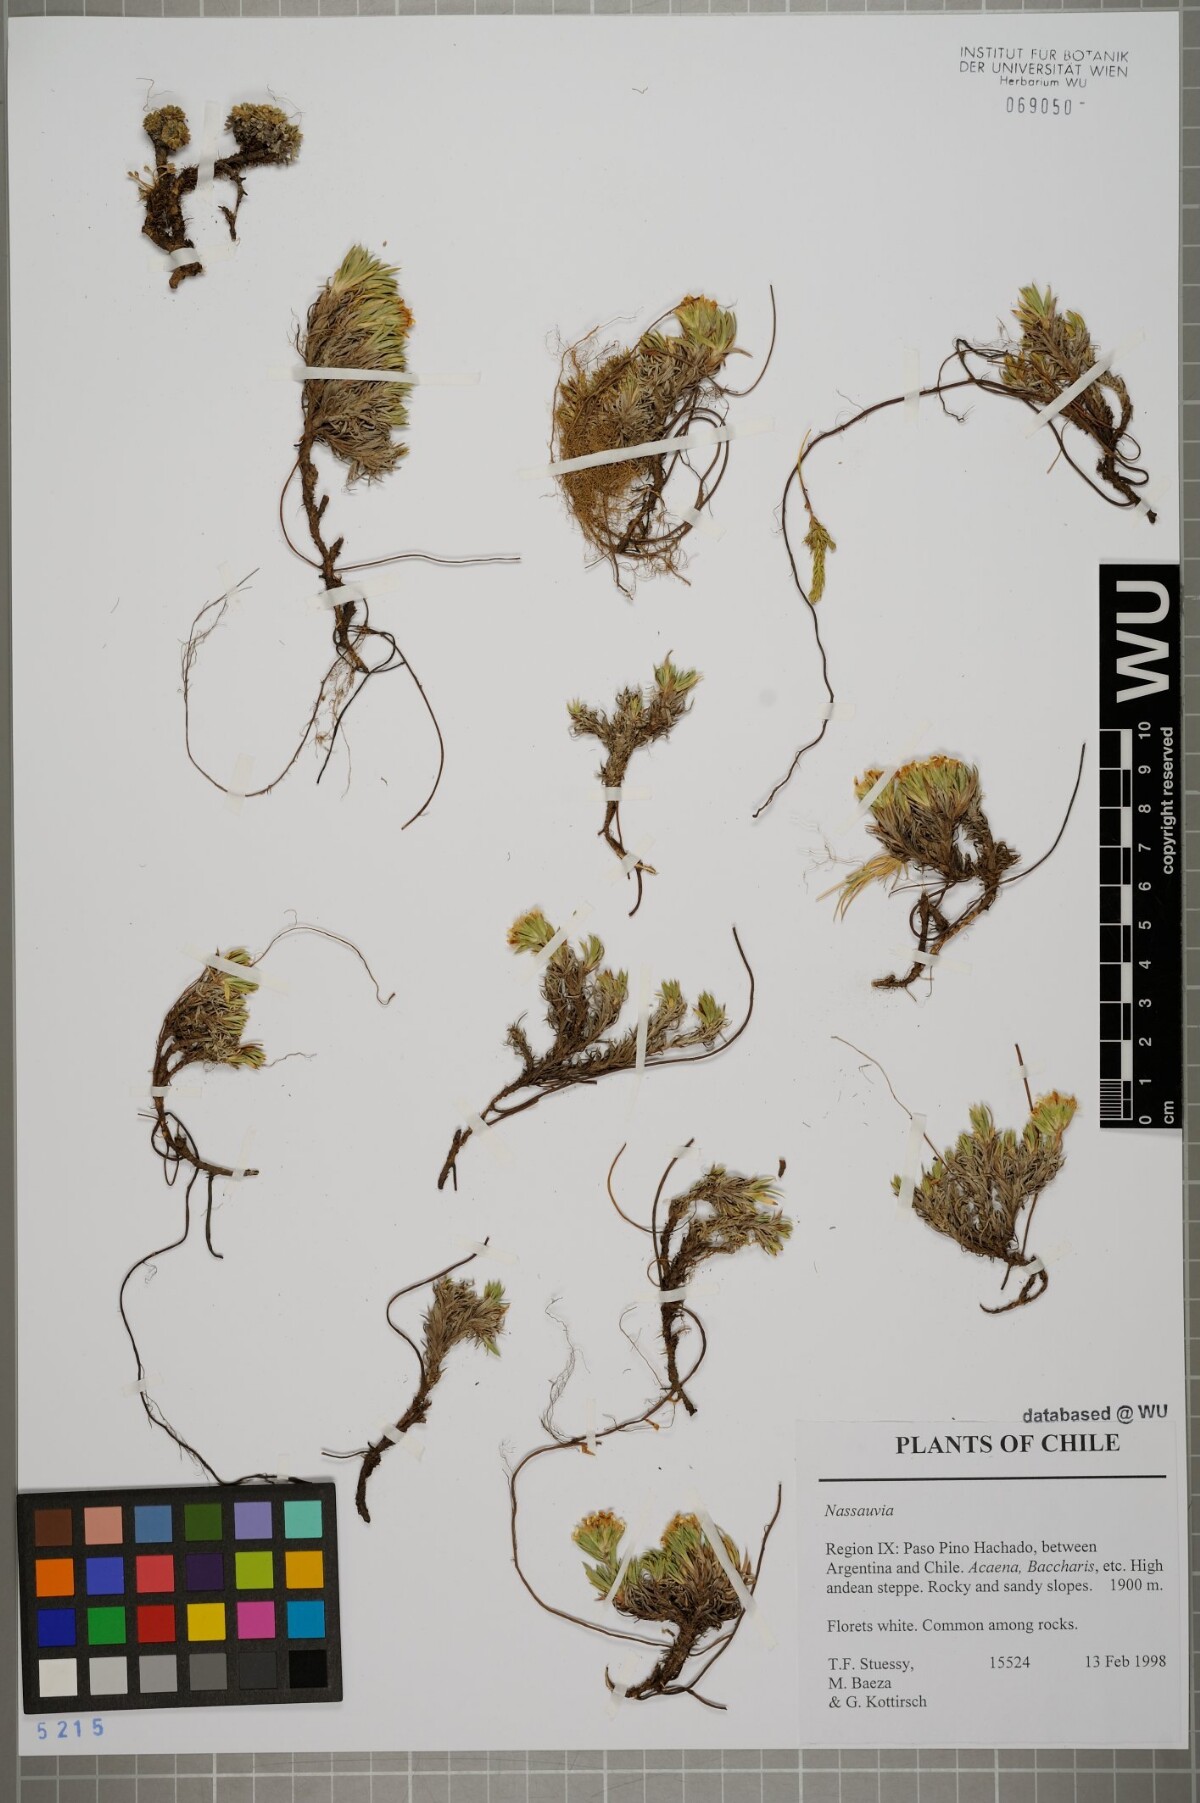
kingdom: Plantae
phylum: Tracheophyta
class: Magnoliopsida
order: Asterales
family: Asteraceae
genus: Nassauvia
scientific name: Nassauvia
